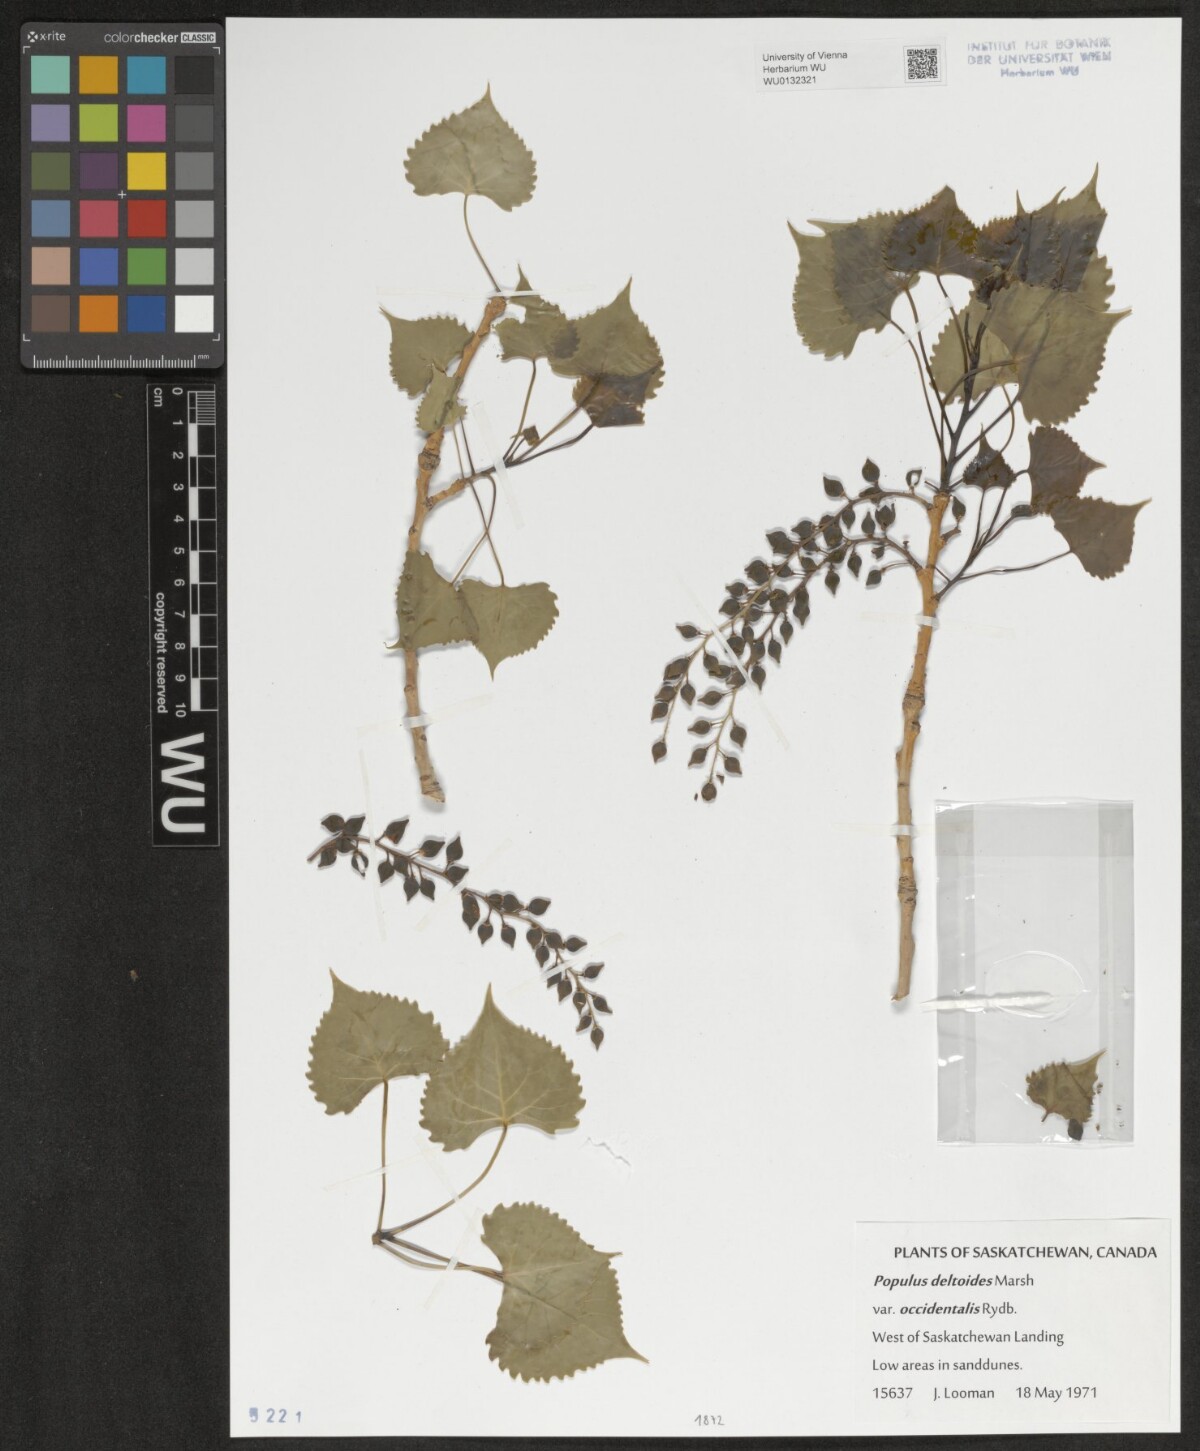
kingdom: Plantae
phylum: Tracheophyta
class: Magnoliopsida
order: Malpighiales
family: Salicaceae
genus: Populus
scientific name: Populus deltoides
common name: Eastern cottonwood
